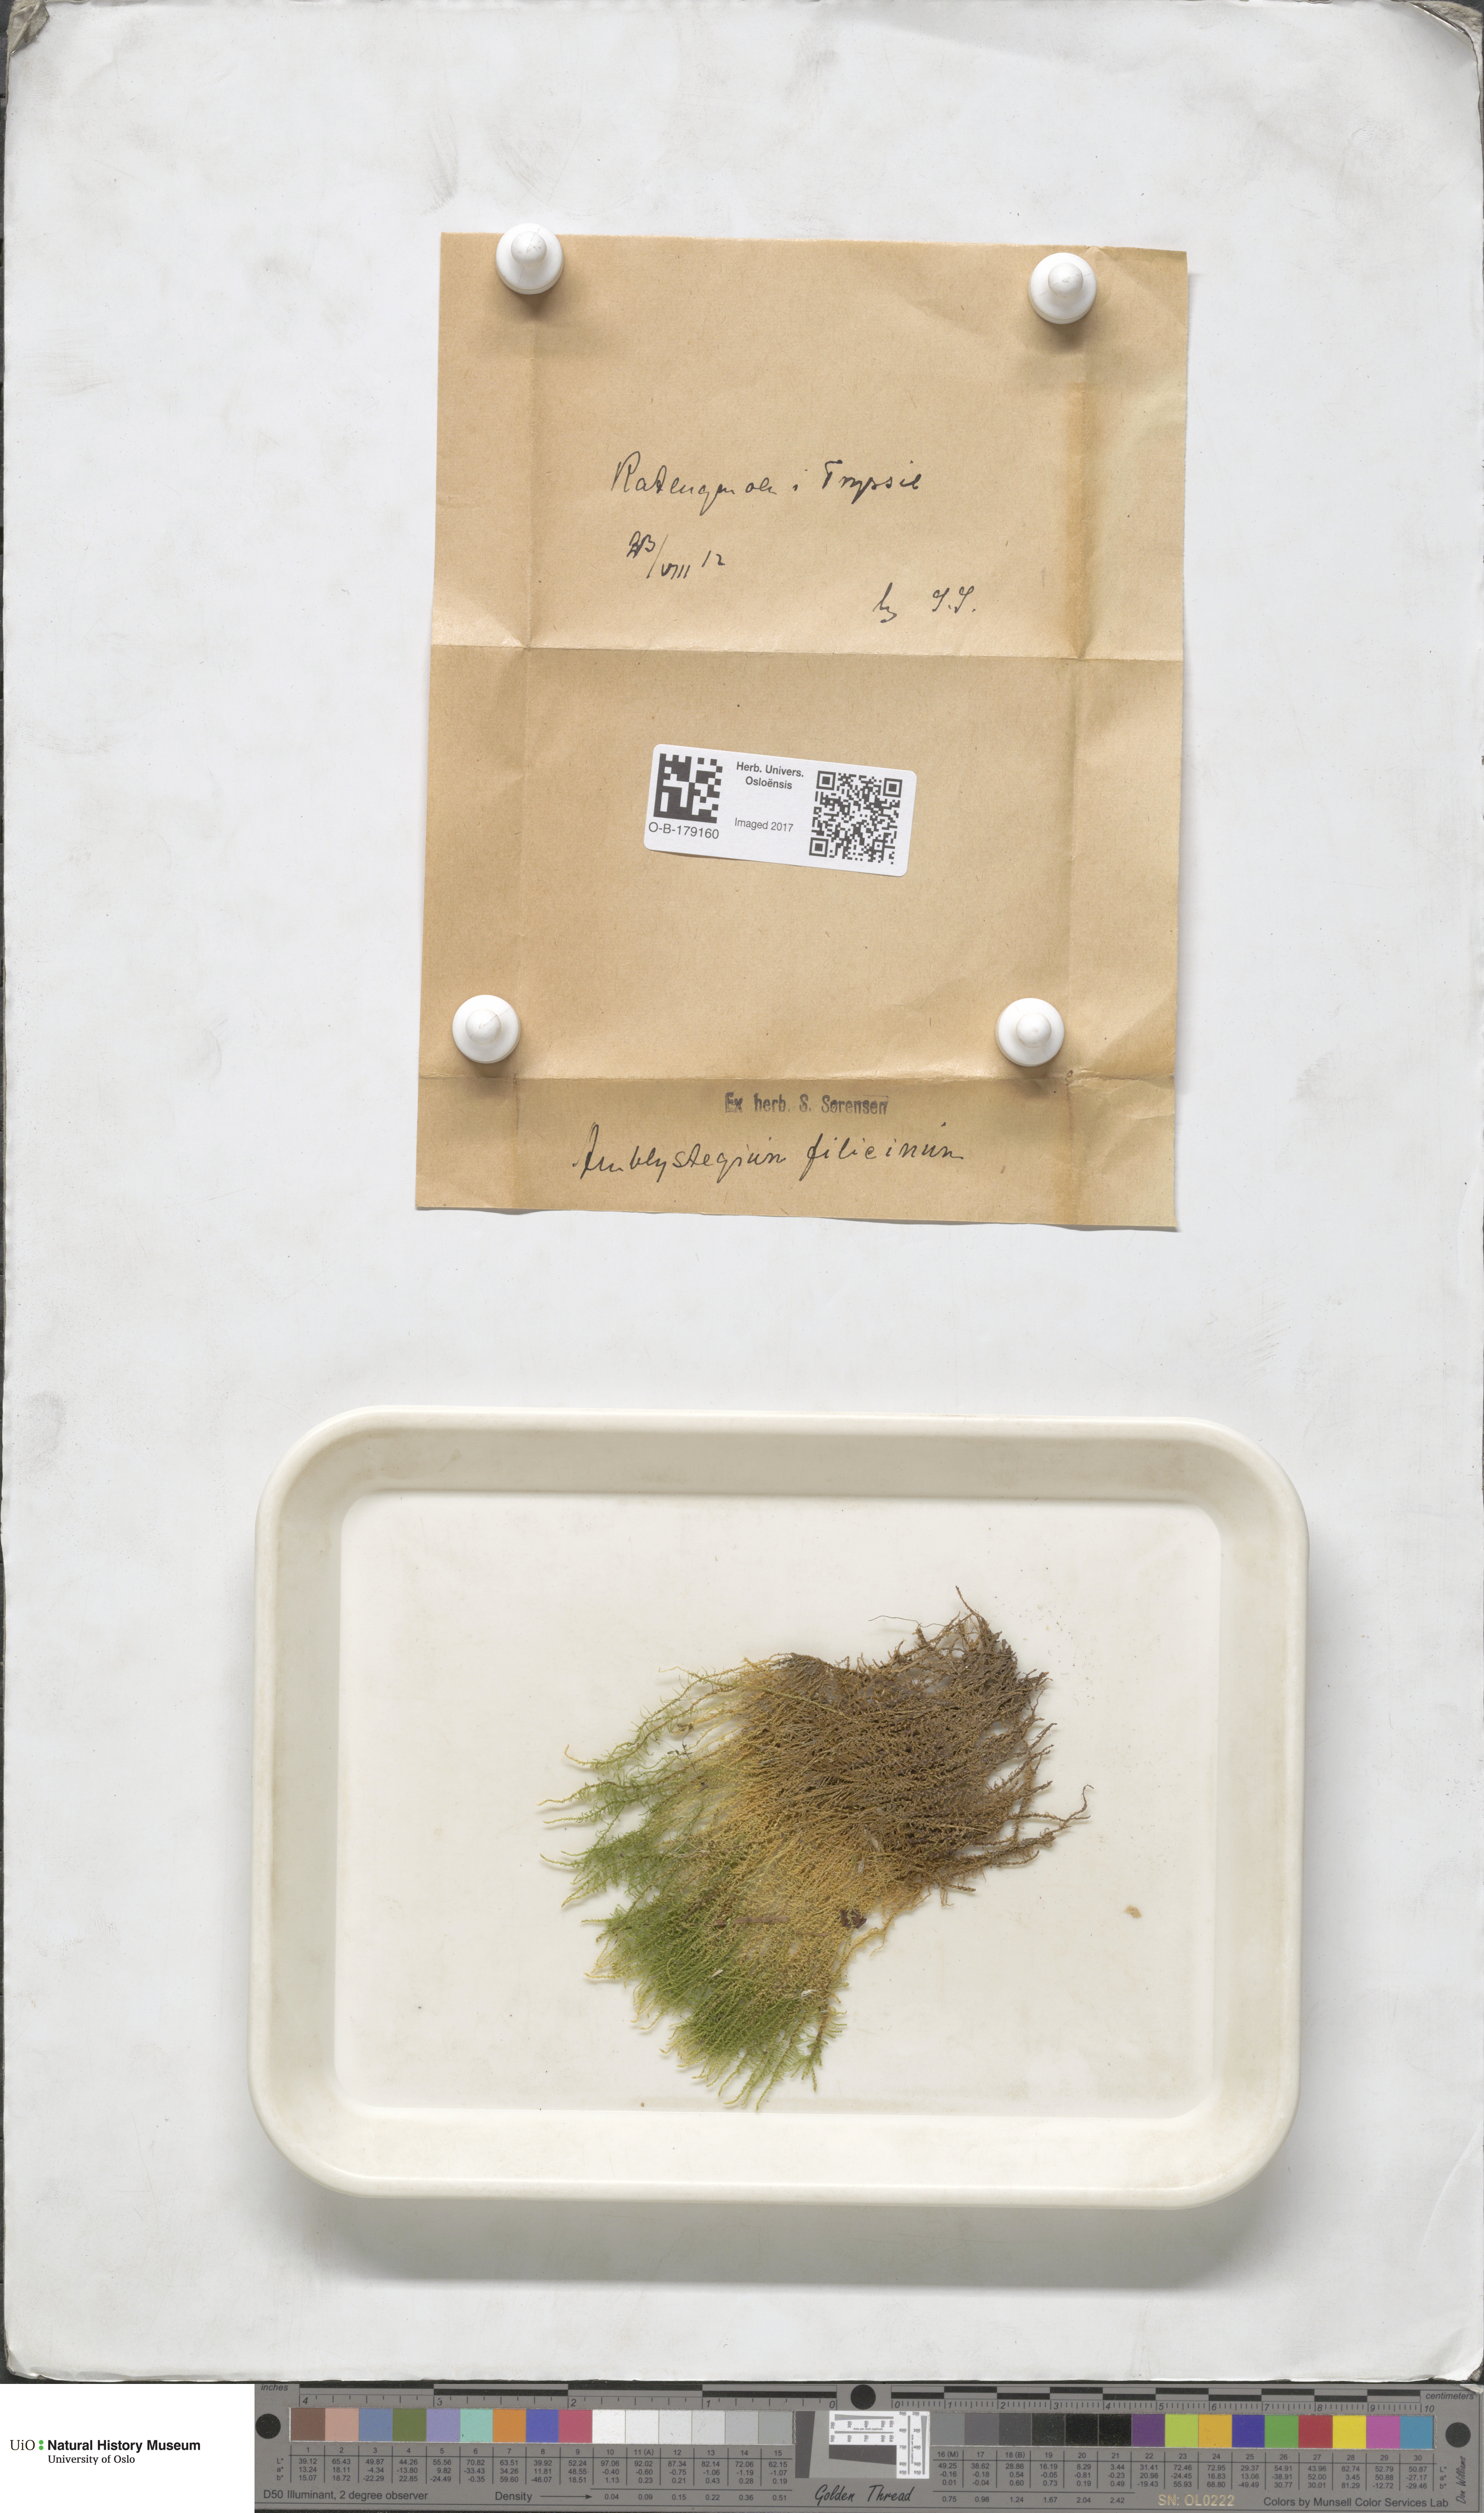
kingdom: Plantae
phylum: Bryophyta
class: Bryopsida
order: Hypnales
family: Amblystegiaceae
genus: Cratoneuron
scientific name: Cratoneuron filicinum
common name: Fern-leaved hook moss
